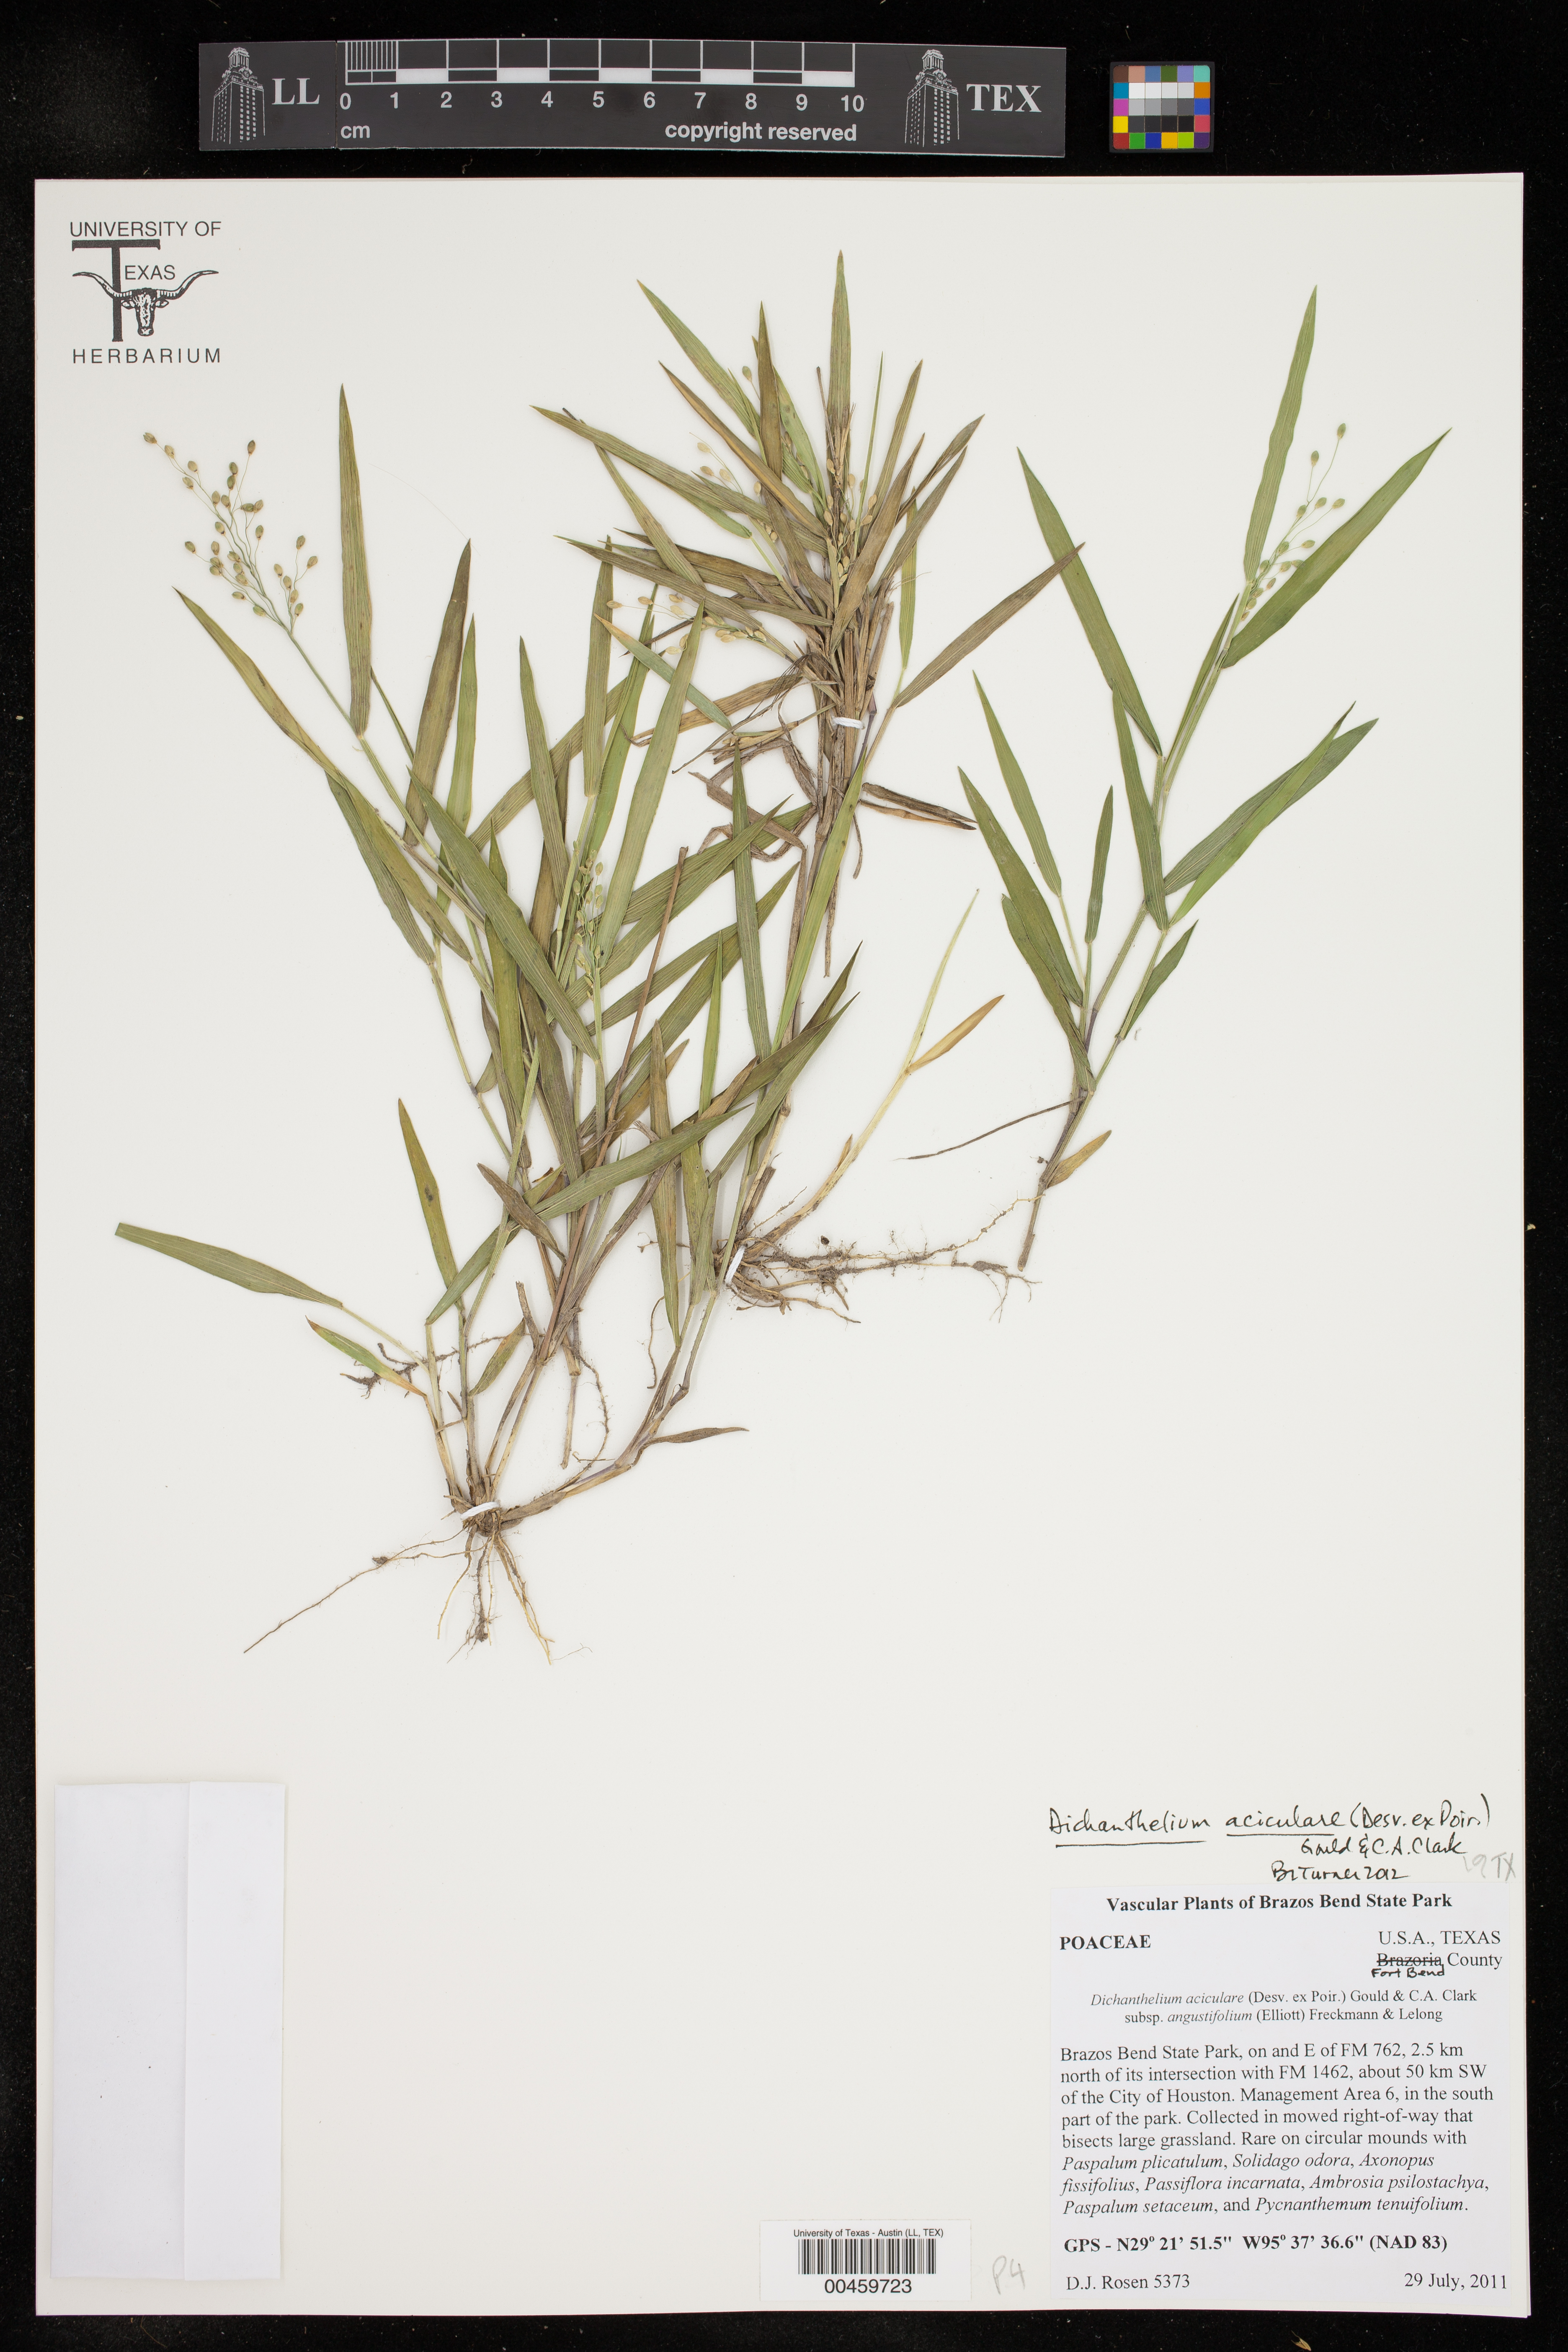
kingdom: Plantae
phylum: Tracheophyta
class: Liliopsida
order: Poales
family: Poaceae
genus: Dichanthelium
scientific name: Dichanthelium aciculare
